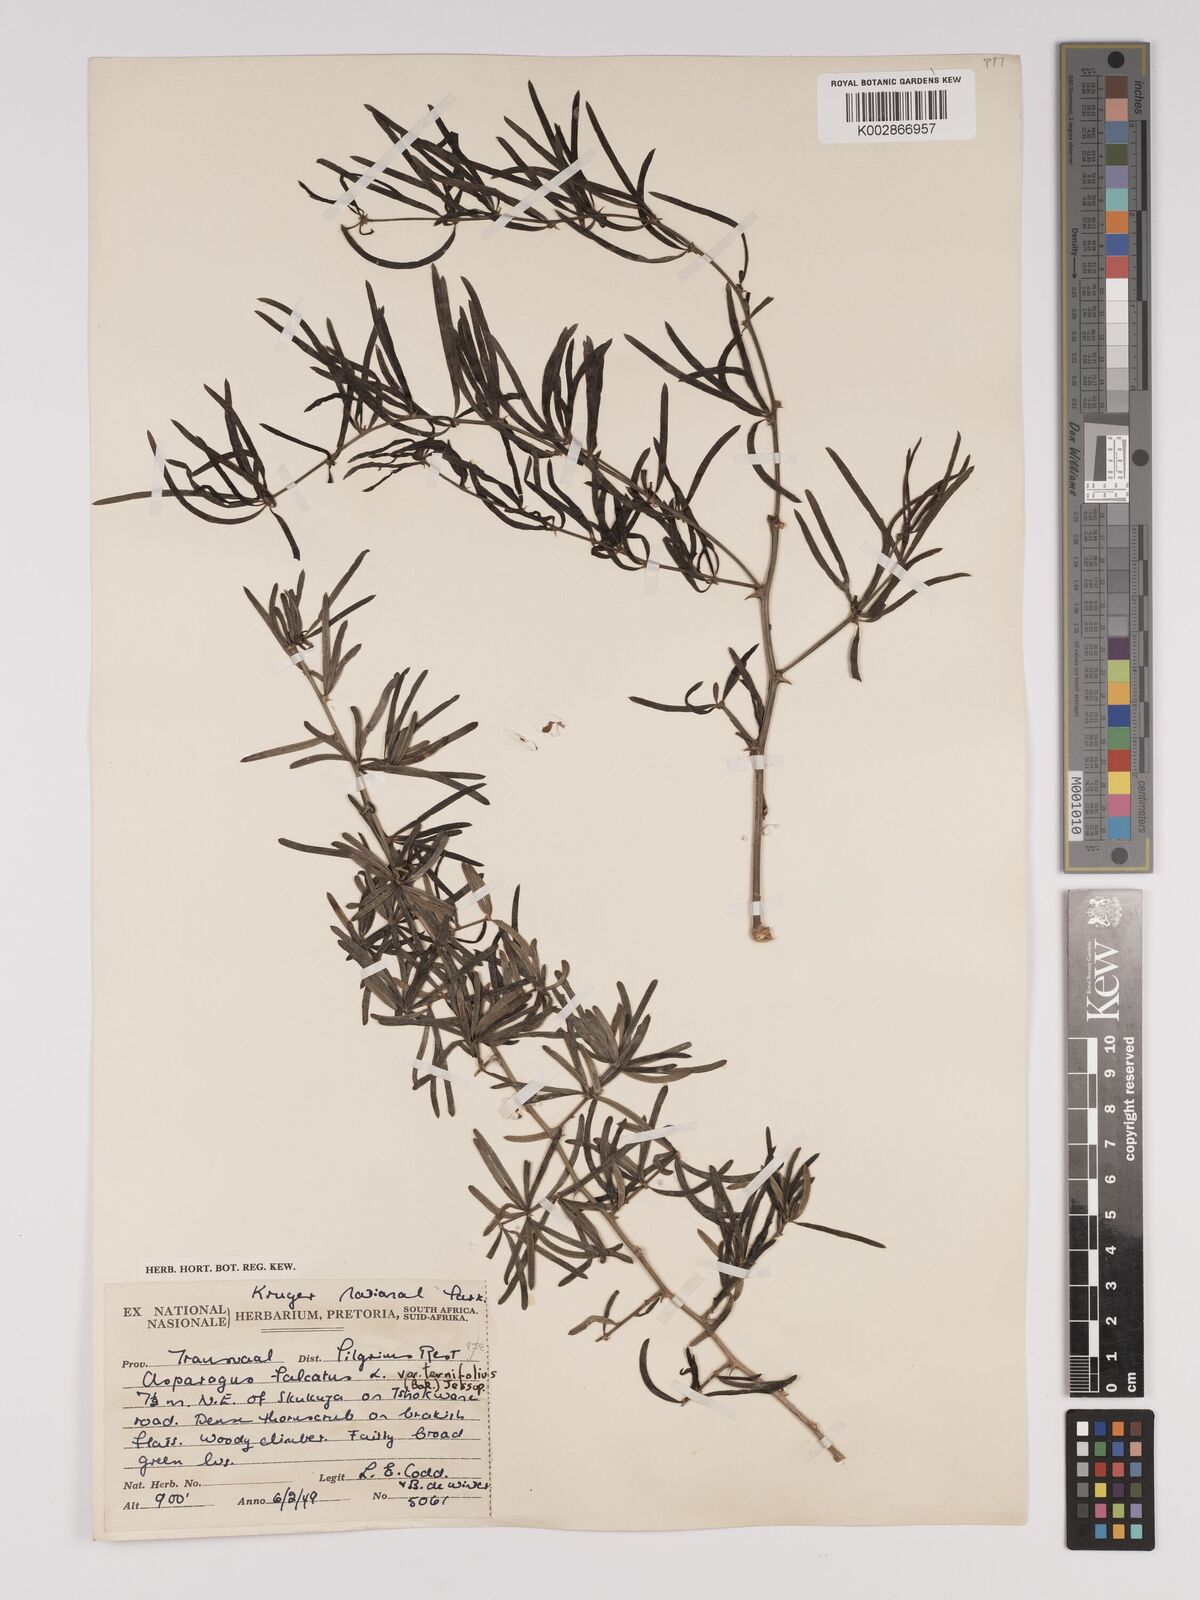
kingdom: Plantae
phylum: Tracheophyta
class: Liliopsida
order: Asparagales
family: Asparagaceae
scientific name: Asparagaceae
